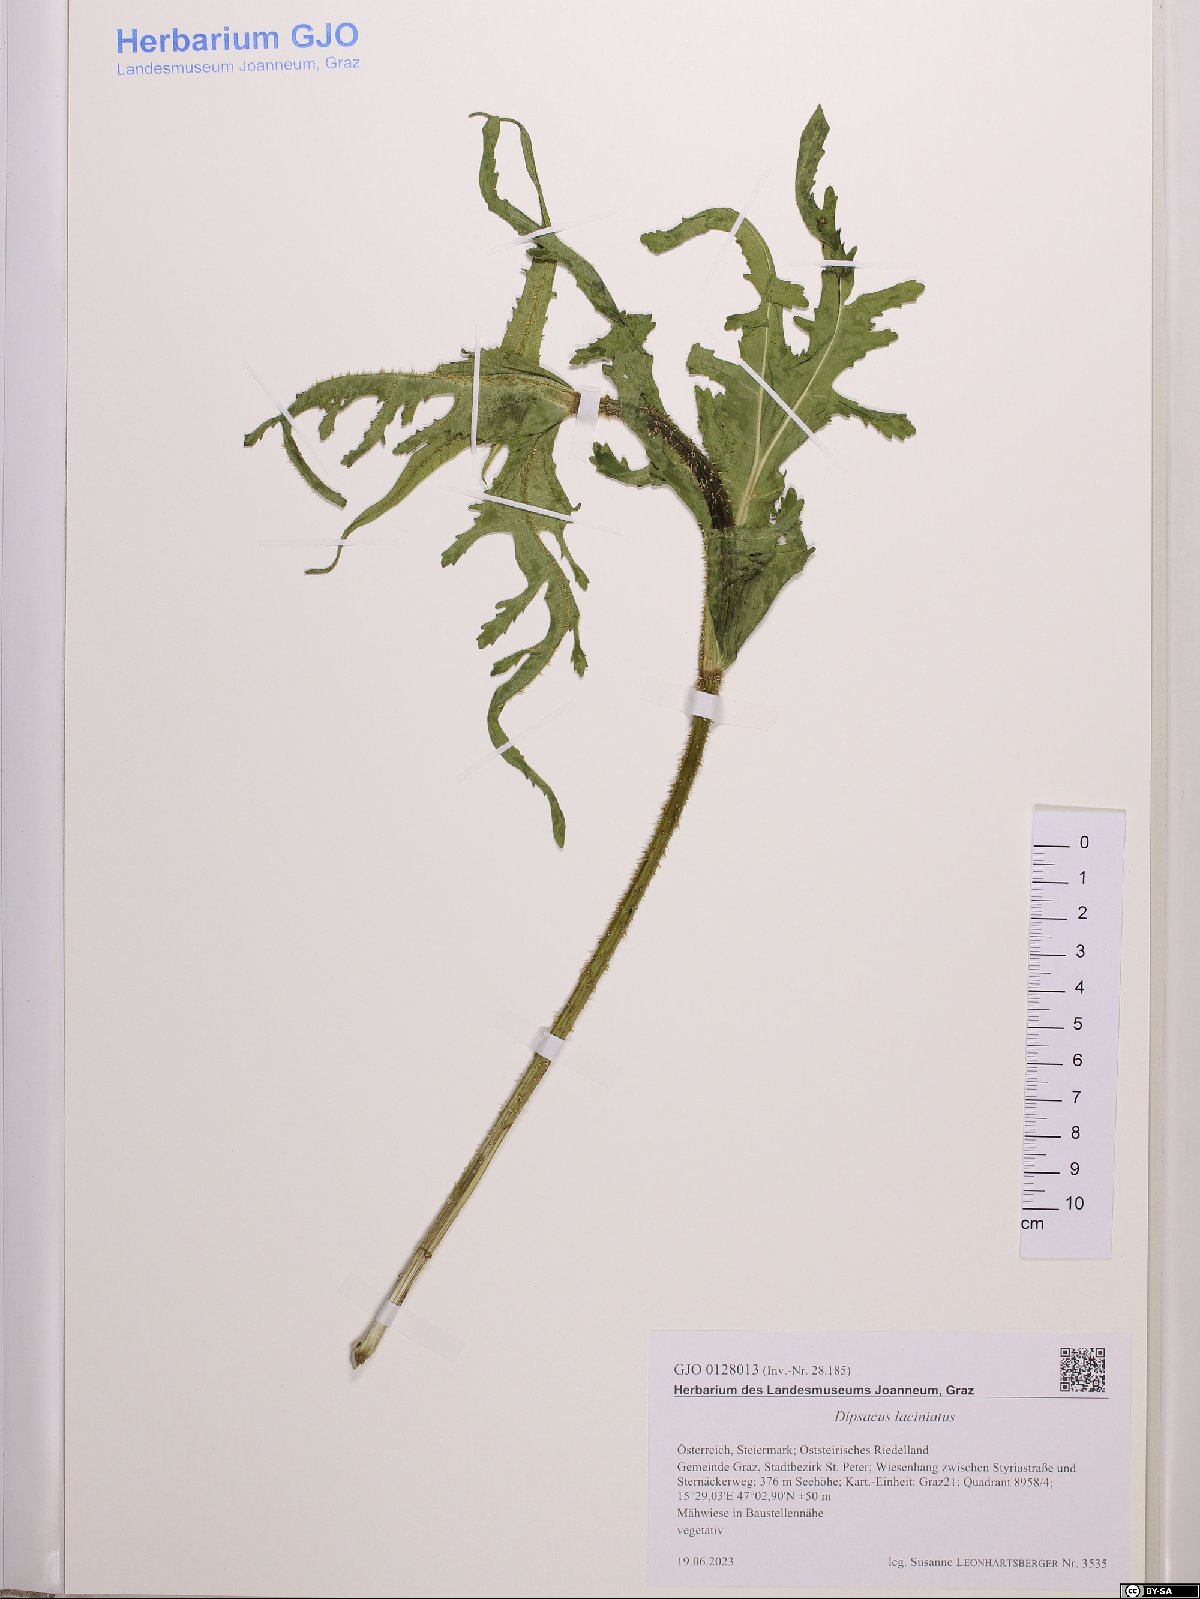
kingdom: Plantae
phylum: Tracheophyta
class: Magnoliopsida
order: Dipsacales
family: Caprifoliaceae
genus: Dipsacus
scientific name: Dipsacus laciniatus
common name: Cut-leaved teasel
